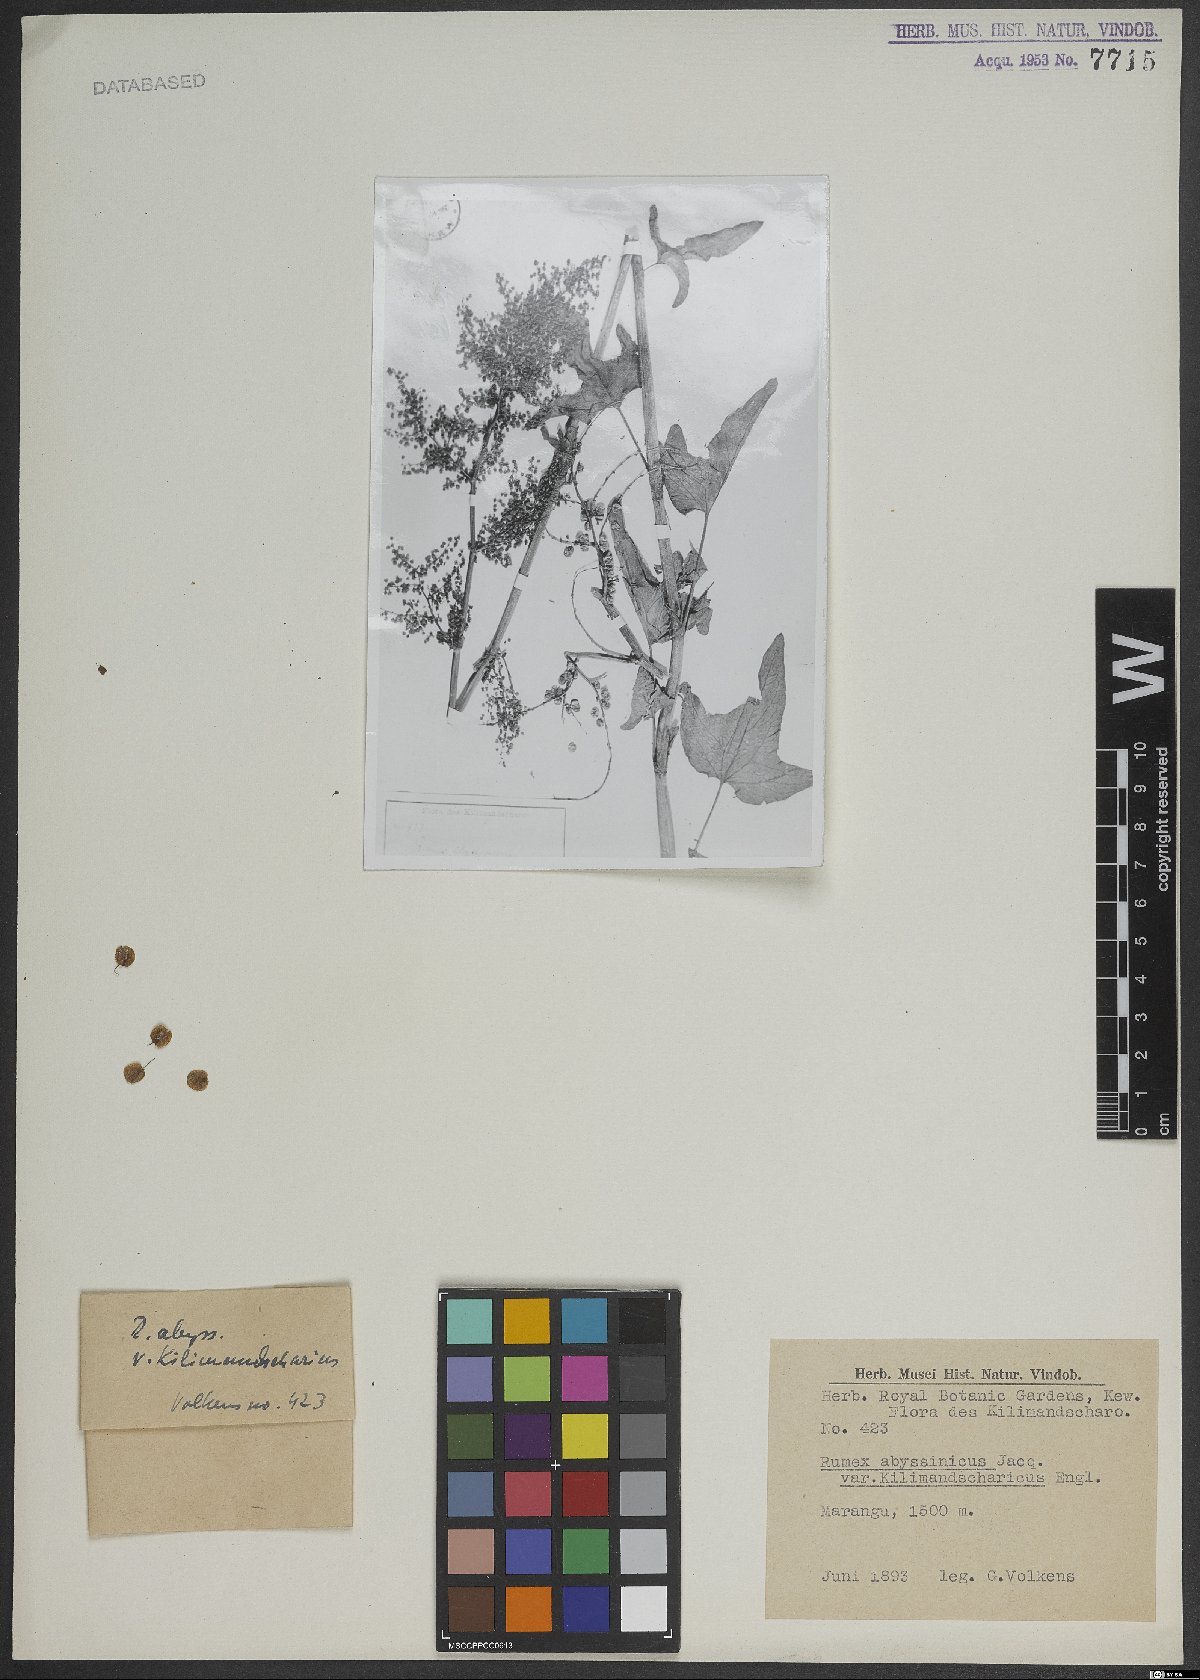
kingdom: Plantae
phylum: Tracheophyta
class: Magnoliopsida
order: Caryophyllales
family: Polygonaceae
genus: Rumex
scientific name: Rumex abyssinicus
